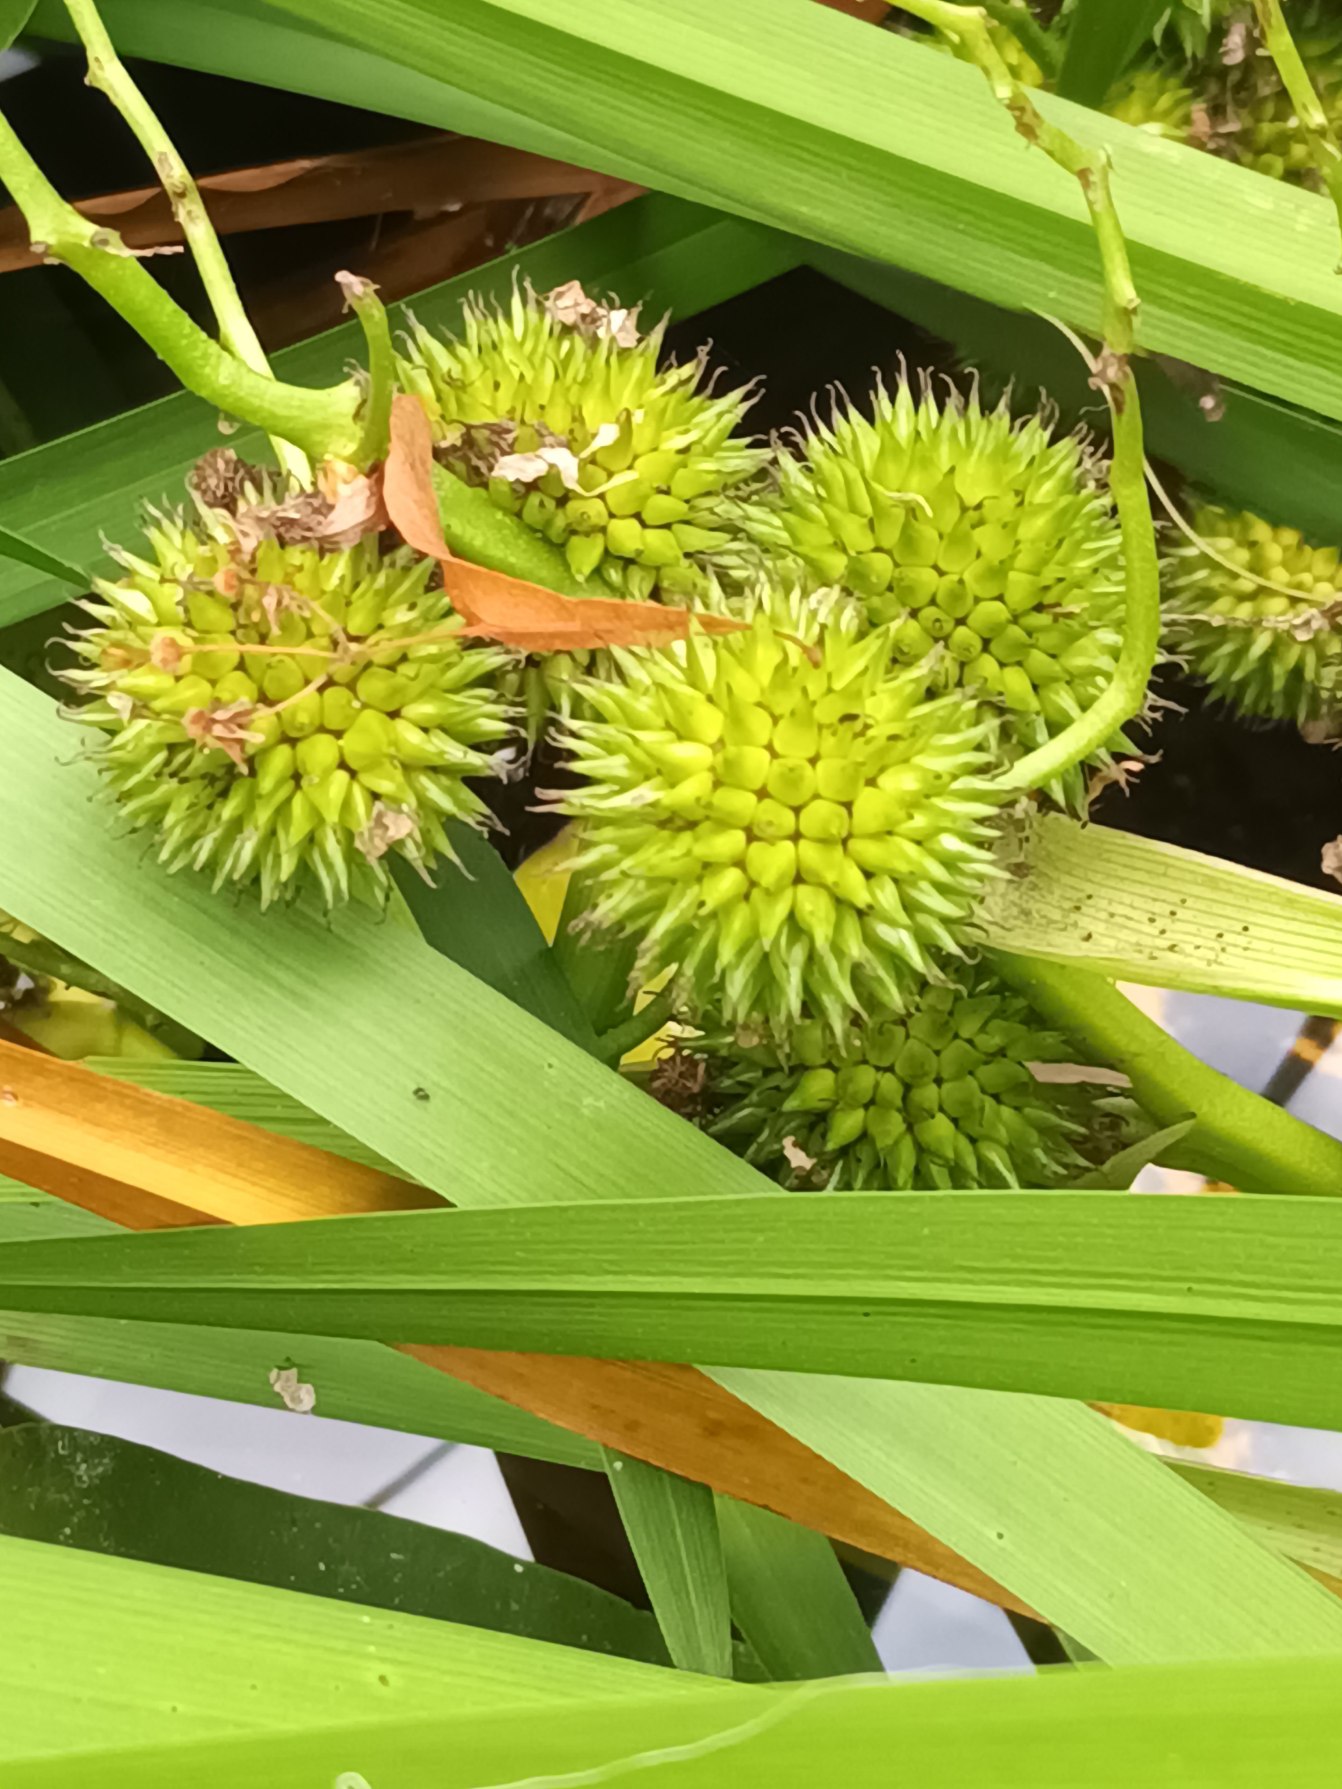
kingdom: Plantae
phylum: Tracheophyta
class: Liliopsida
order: Poales
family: Typhaceae
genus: Sparganium
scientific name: Sparganium erectum
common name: Grenet pindsvineknop
